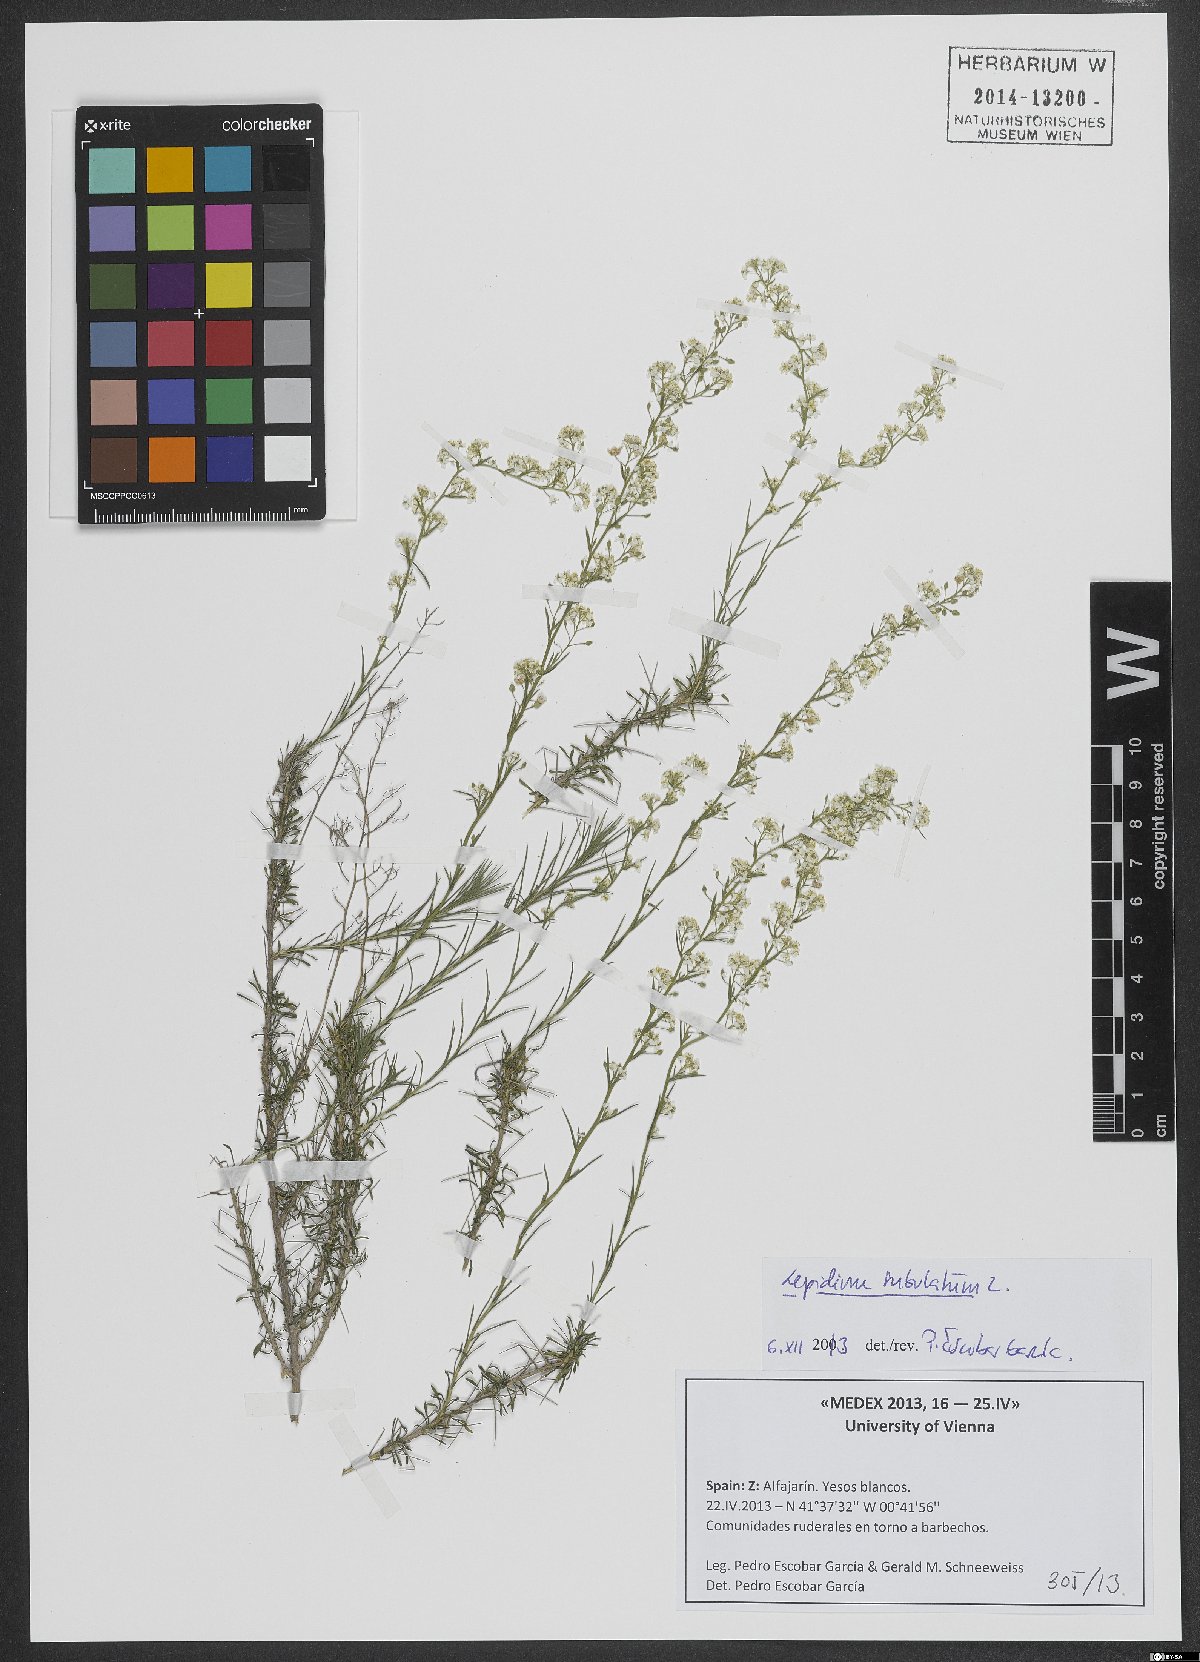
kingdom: Plantae
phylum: Tracheophyta
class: Magnoliopsida
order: Brassicales
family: Brassicaceae
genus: Lepidium
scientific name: Lepidium subulatum
